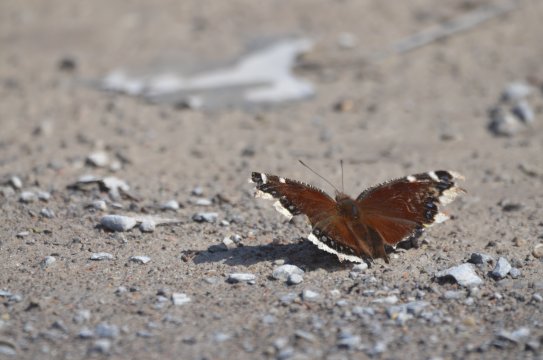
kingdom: Animalia
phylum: Arthropoda
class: Insecta
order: Lepidoptera
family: Nymphalidae
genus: Nymphalis
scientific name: Nymphalis antiopa
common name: Mourning Cloak
